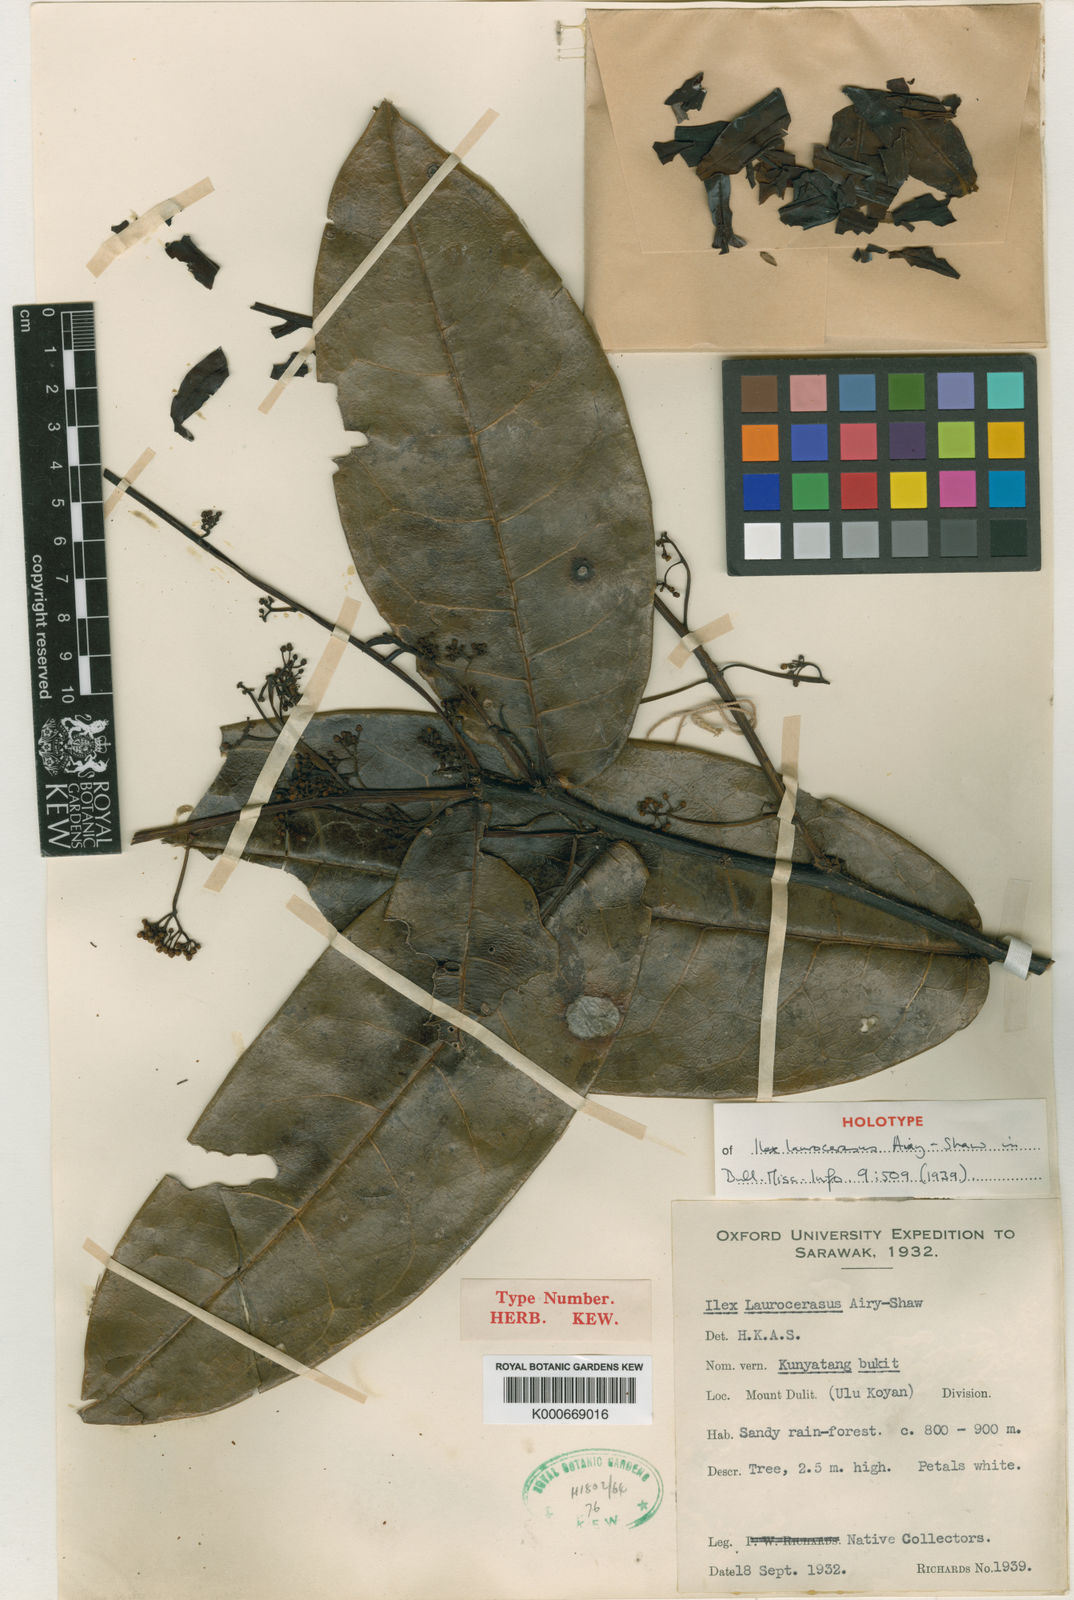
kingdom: Plantae
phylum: Tracheophyta
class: Magnoliopsida
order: Aquifoliales
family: Aquifoliaceae
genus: Ilex
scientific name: Ilex laurocensus
